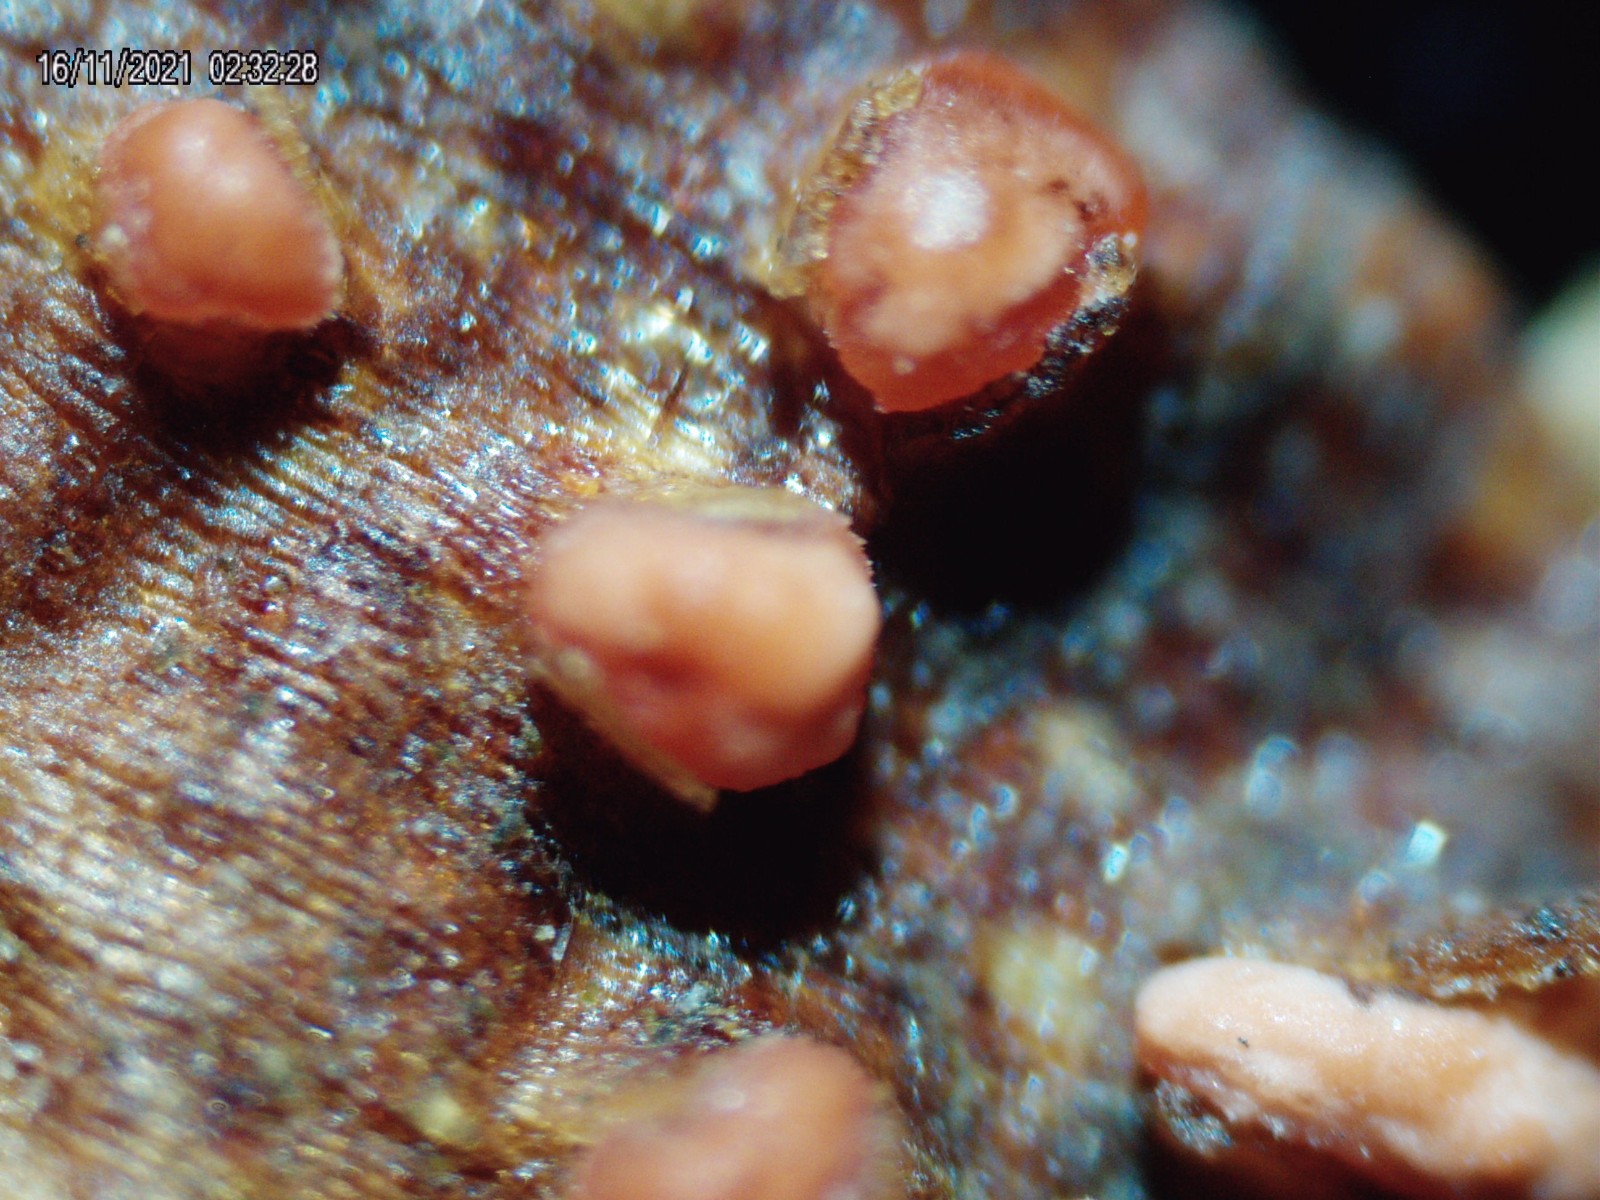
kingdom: Fungi
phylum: Ascomycota
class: Sordariomycetes
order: Hypocreales
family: Nectriaceae
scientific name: Nectriaceae
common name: cinnobersvampfamilien
